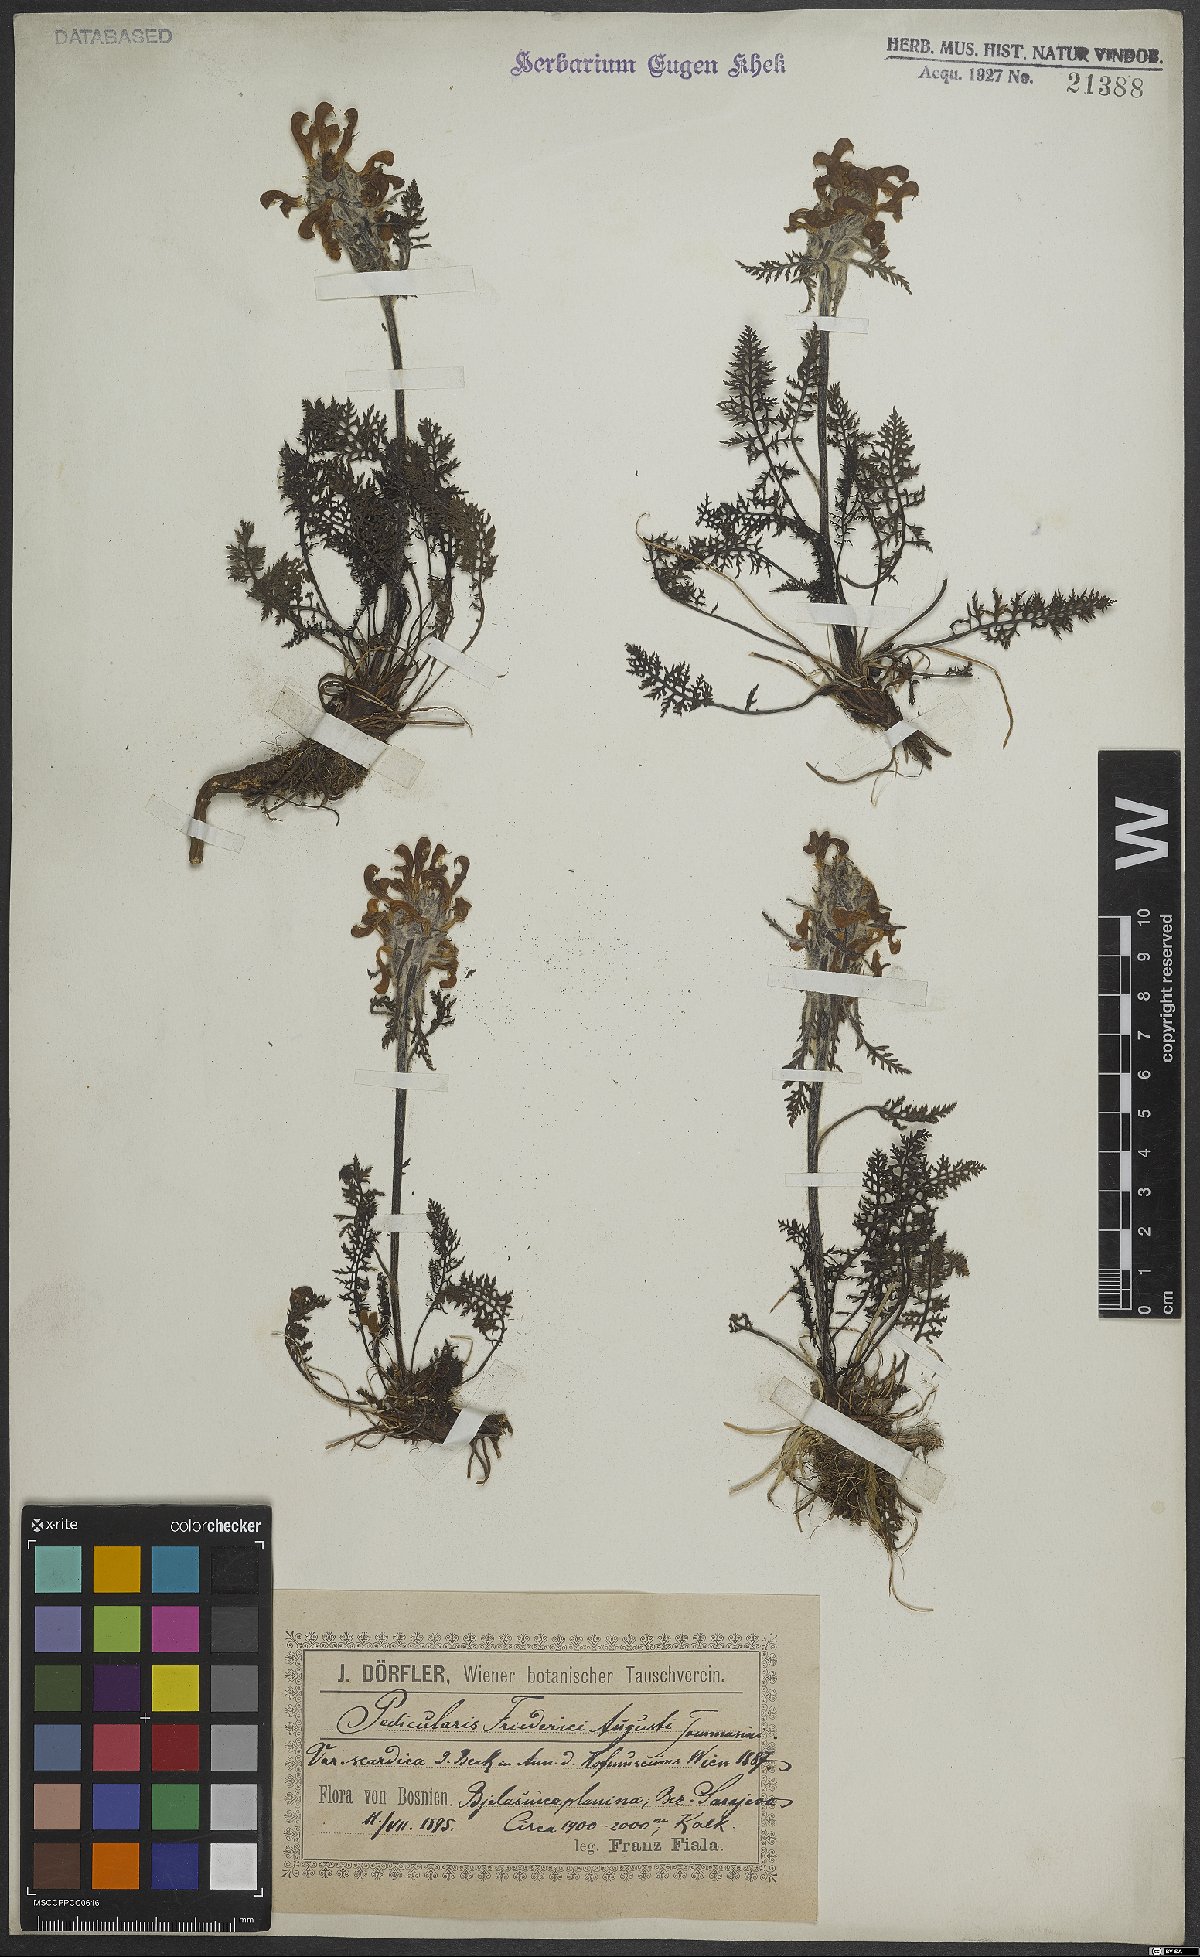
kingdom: Plantae
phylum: Tracheophyta
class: Magnoliopsida
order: Lamiales
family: Orobanchaceae
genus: Pedicularis
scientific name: Pedicularis friderici-augusti
